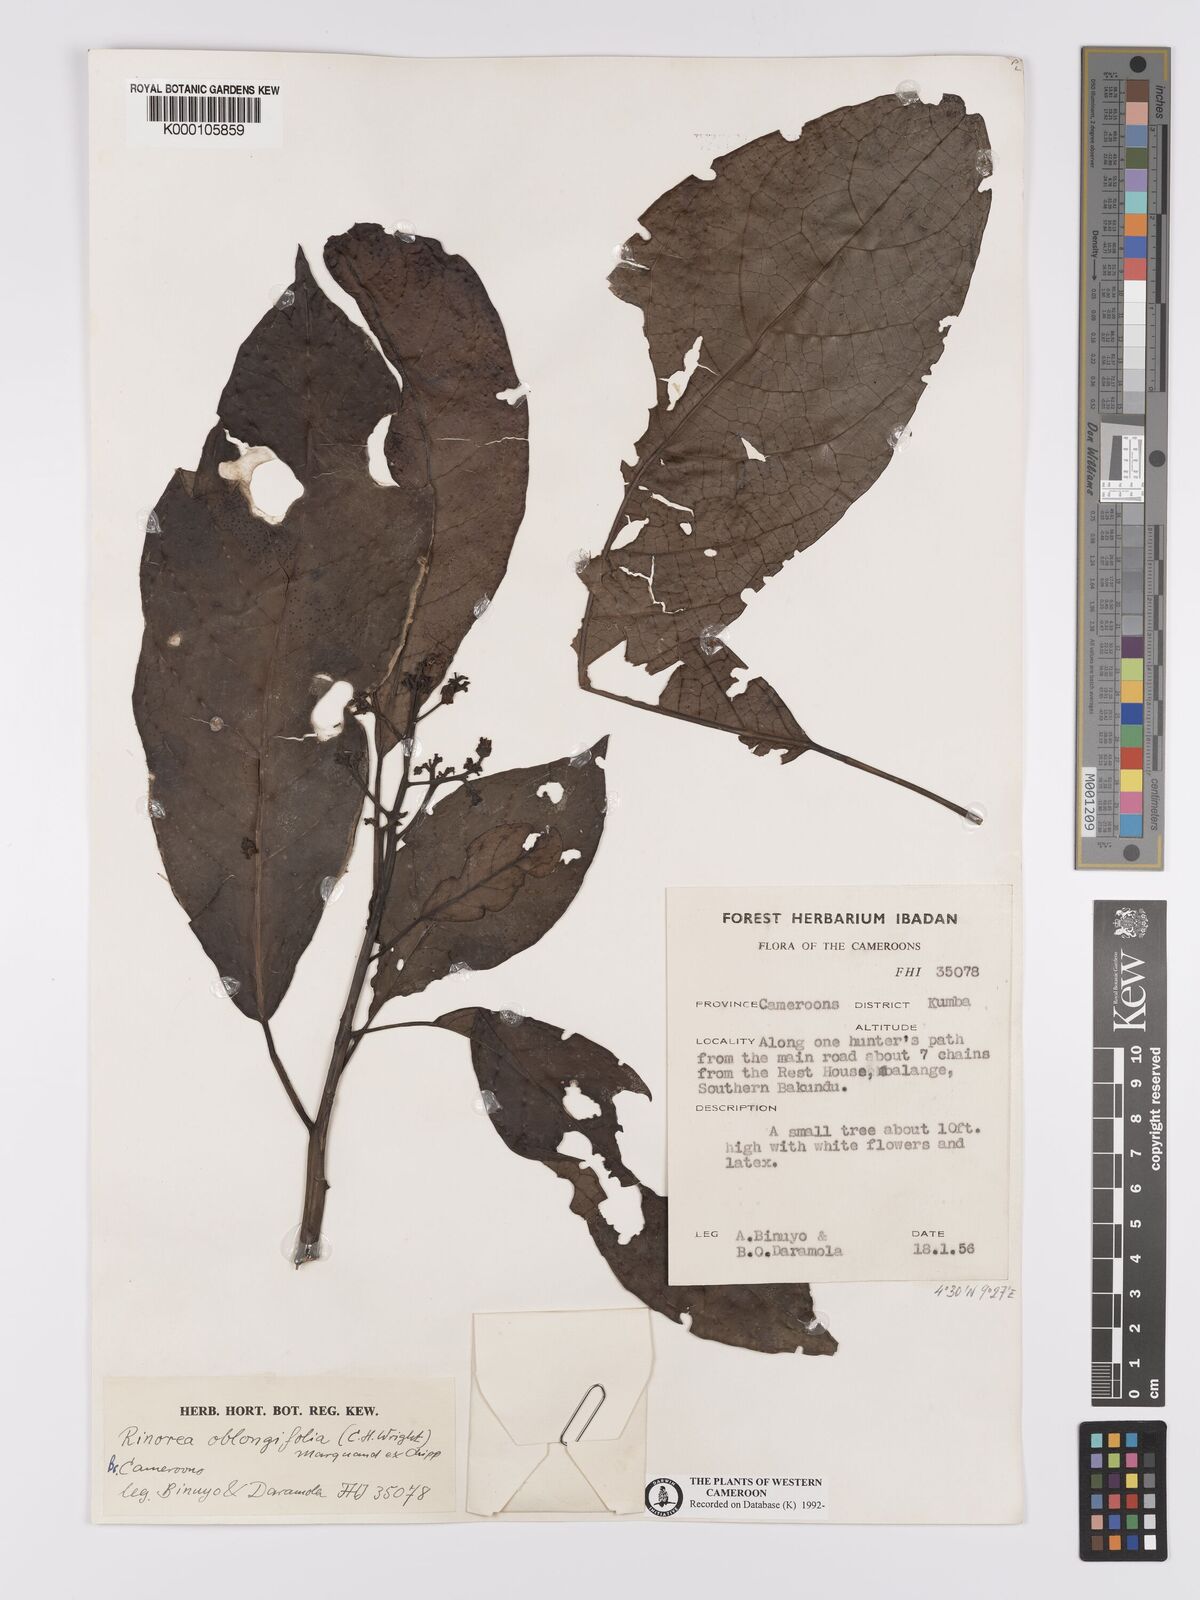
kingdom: Plantae
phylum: Tracheophyta
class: Magnoliopsida
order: Apiales
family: Pittosporaceae
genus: Marianthus
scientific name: Marianthus coeruleopunctatus
